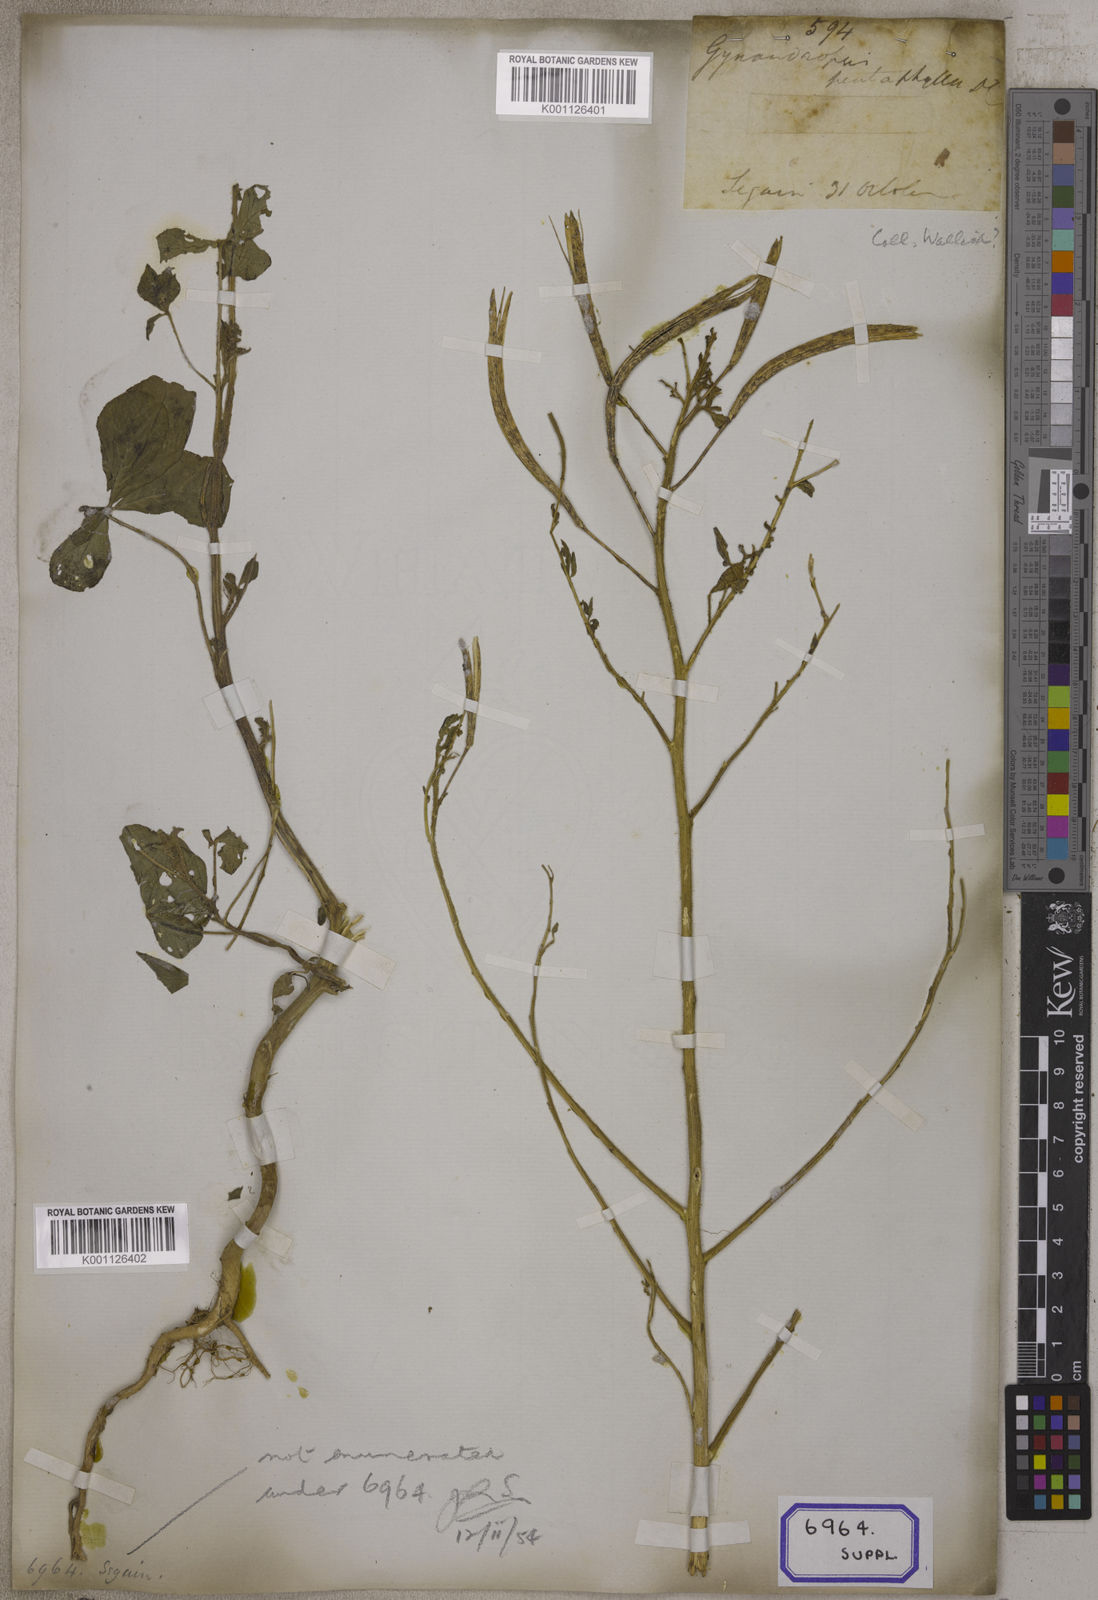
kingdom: Plantae
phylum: Tracheophyta
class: Magnoliopsida
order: Brassicales
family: Cleomaceae
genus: Gynandropsis
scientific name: Gynandropsis gynandra
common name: Spiderwisp
